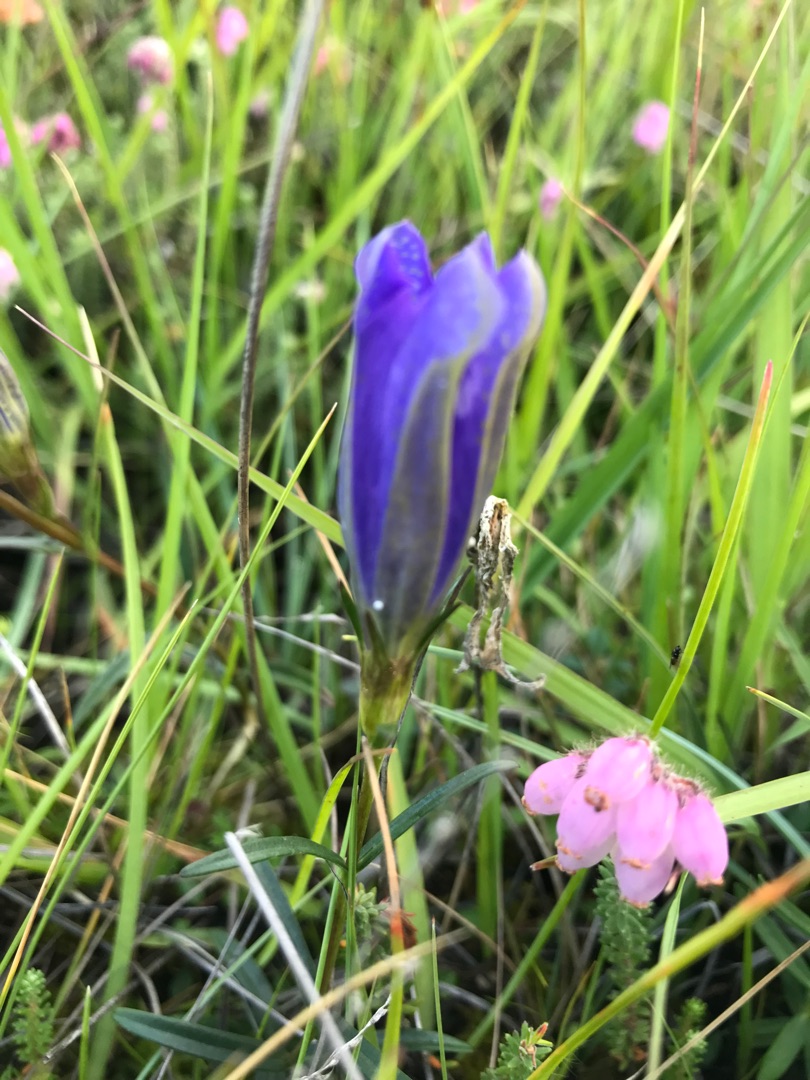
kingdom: Animalia
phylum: Arthropoda
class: Insecta
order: Lepidoptera
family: Lycaenidae
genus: Maculinea
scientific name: Maculinea alcon
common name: Ensianblåfugl
